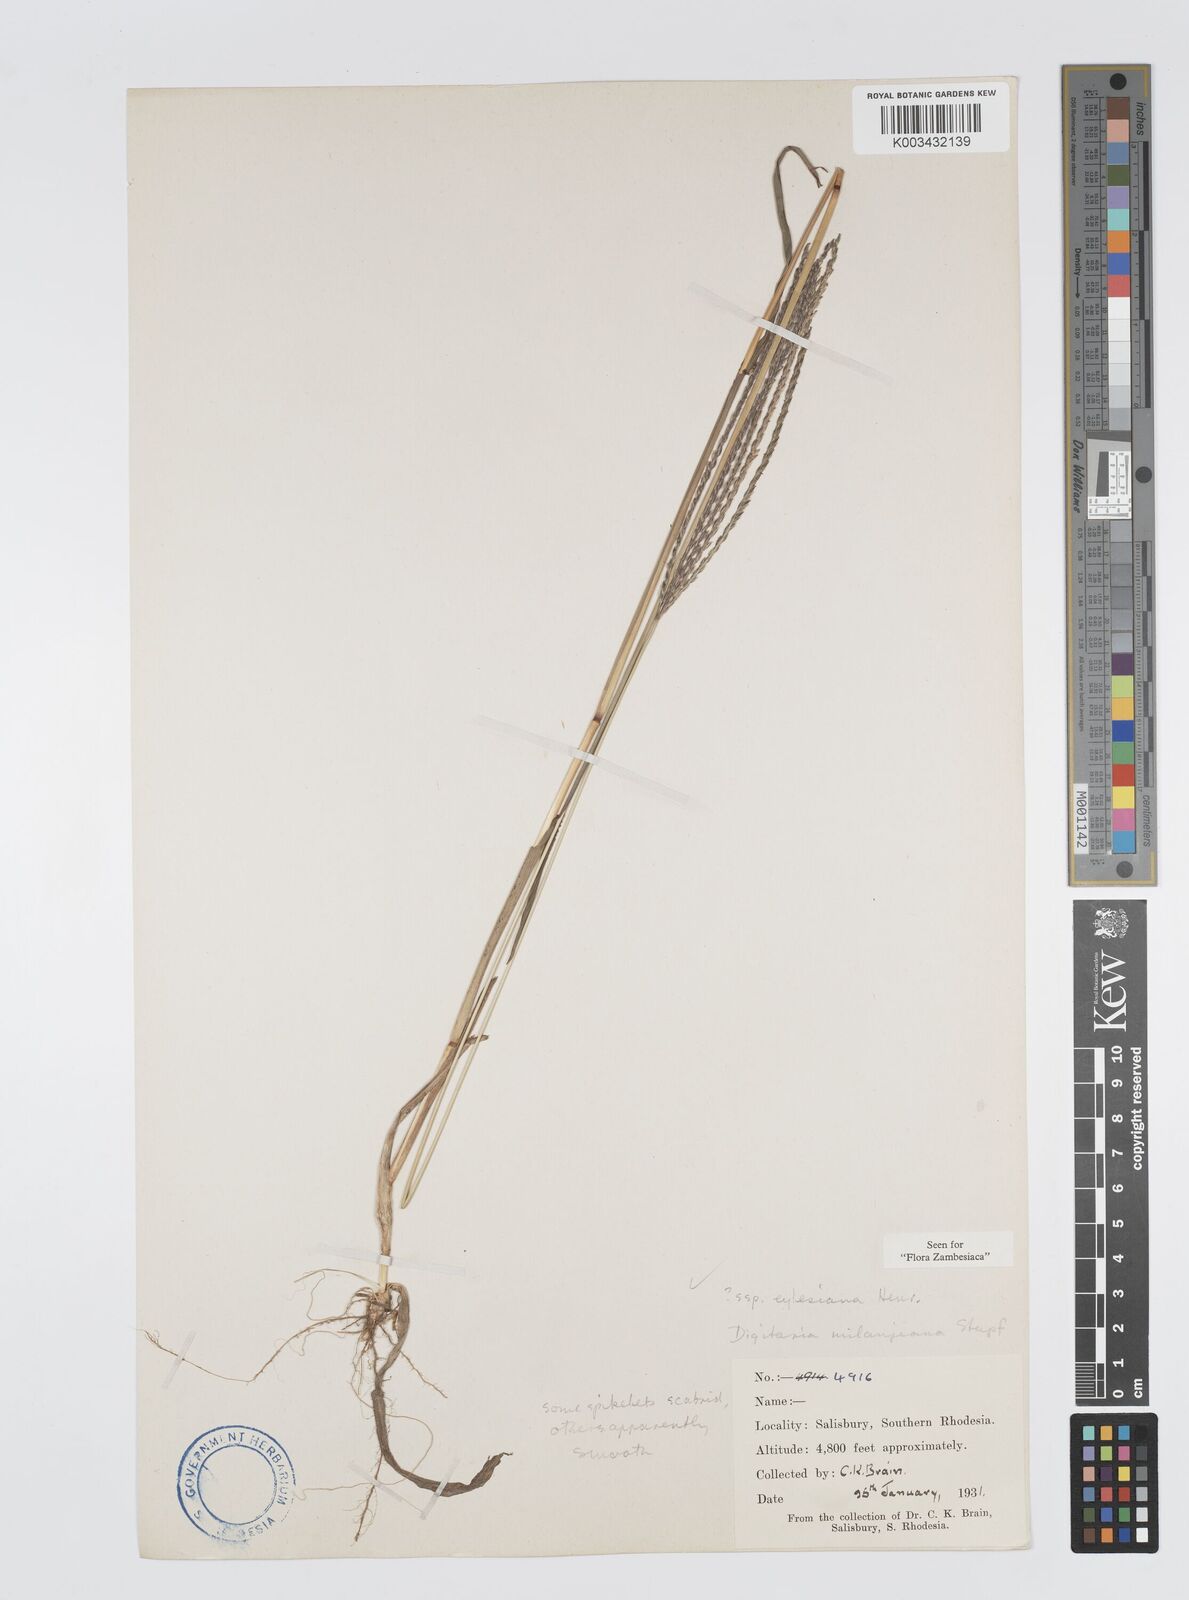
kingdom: Plantae
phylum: Tracheophyta
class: Liliopsida
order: Poales
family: Poaceae
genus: Digitaria
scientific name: Digitaria milanjiana
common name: Madagascar crabgrass
